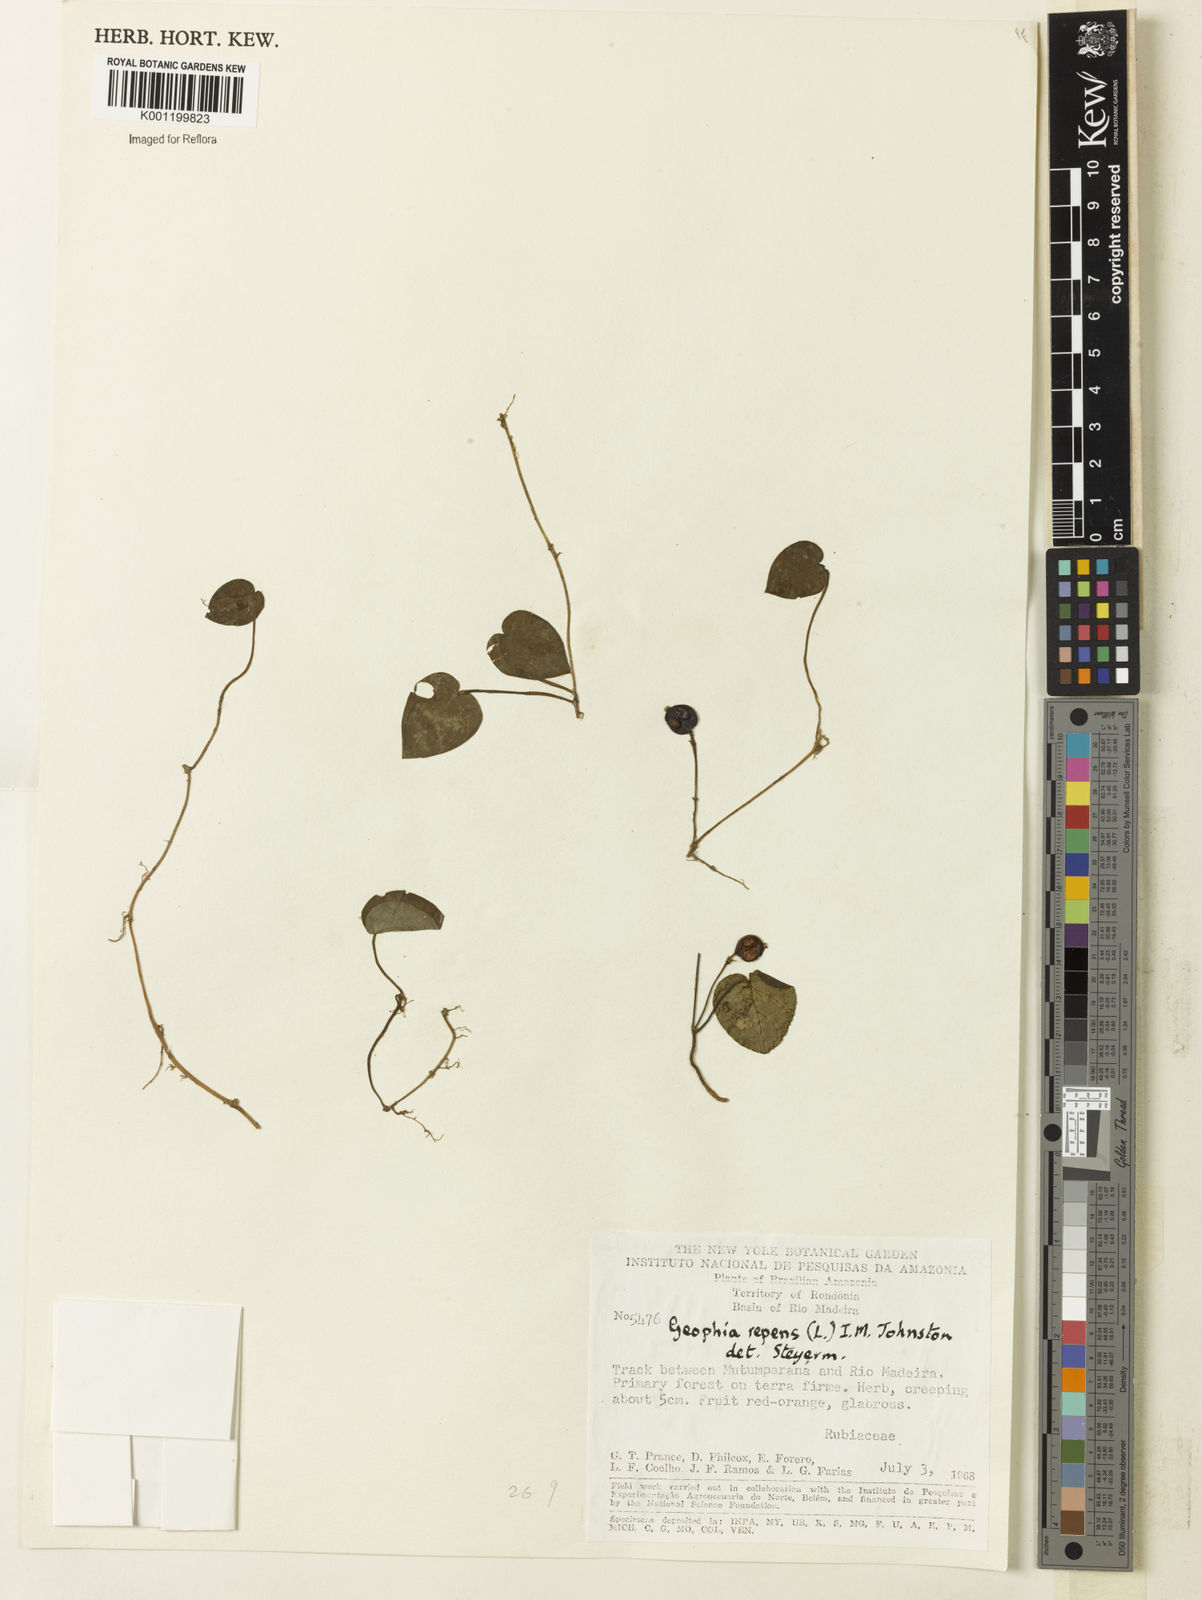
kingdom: Plantae
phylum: Tracheophyta
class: Magnoliopsida
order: Gentianales
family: Rubiaceae
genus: Geophila
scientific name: Geophila repens
